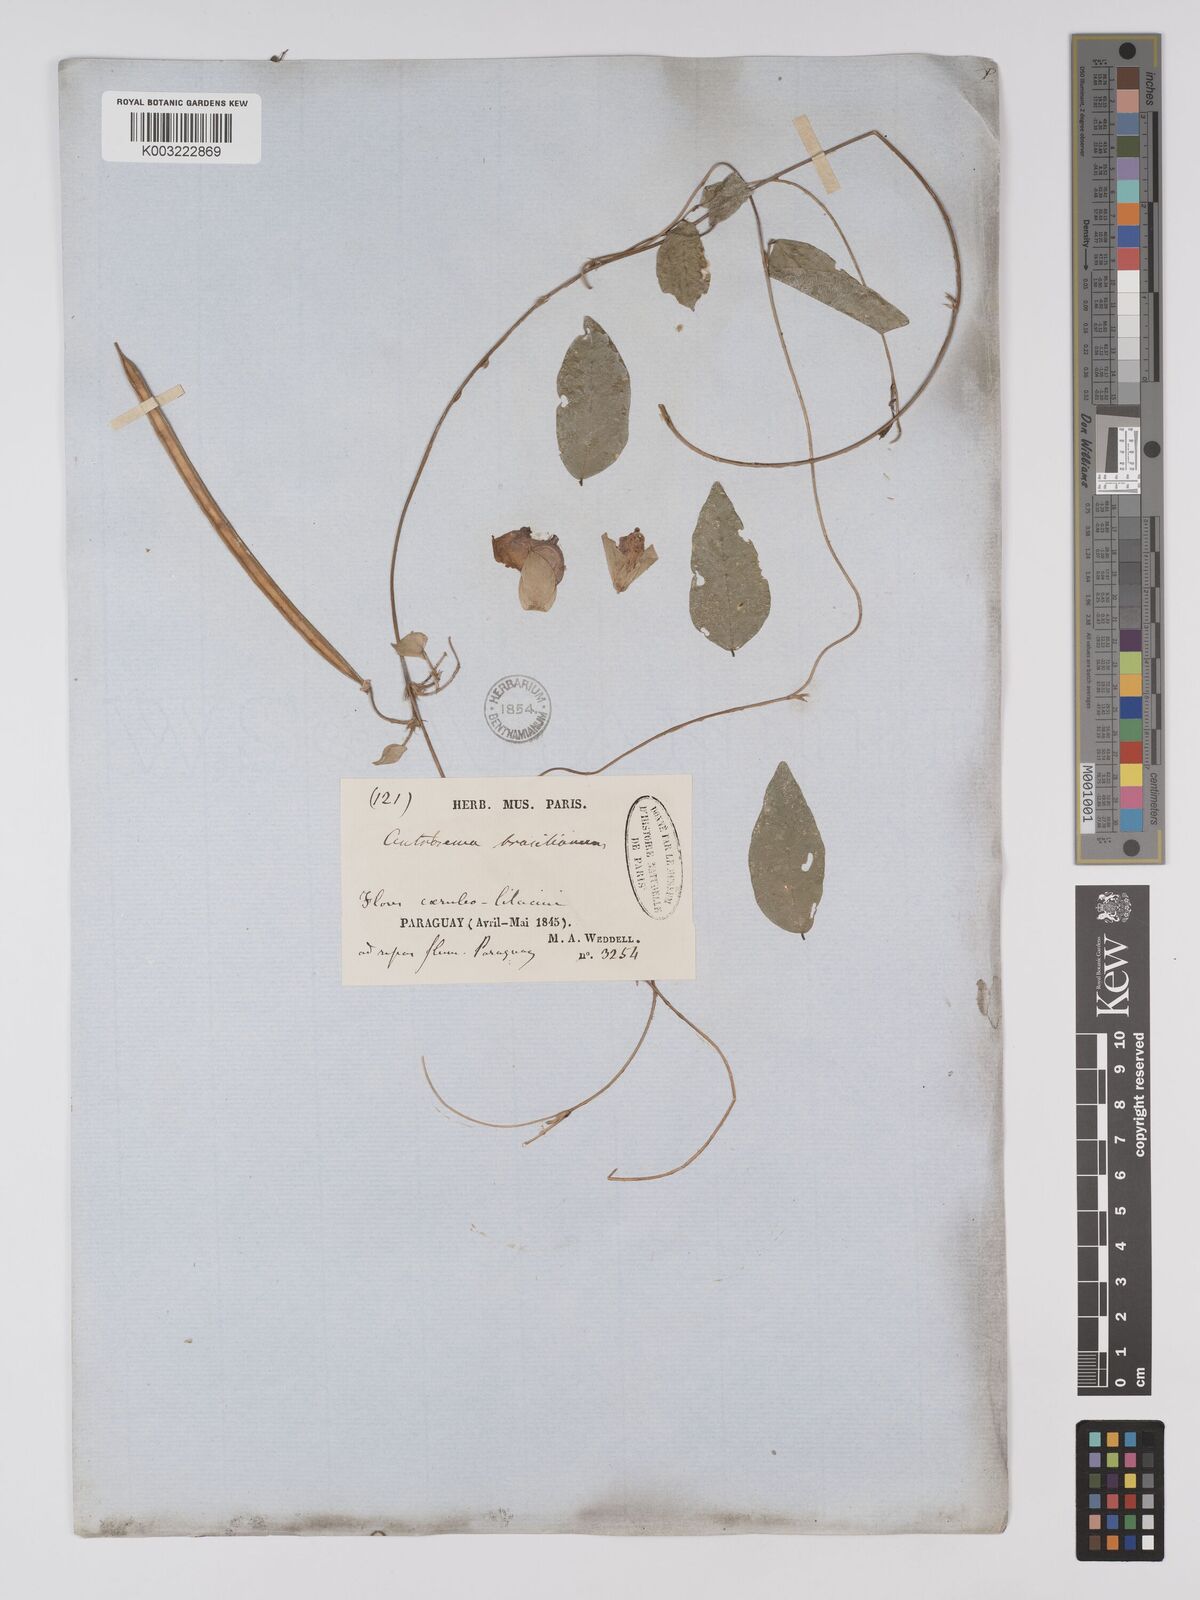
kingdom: Plantae
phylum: Tracheophyta
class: Magnoliopsida
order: Fabales
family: Fabaceae
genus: Centrosema
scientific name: Centrosema brasilianum
